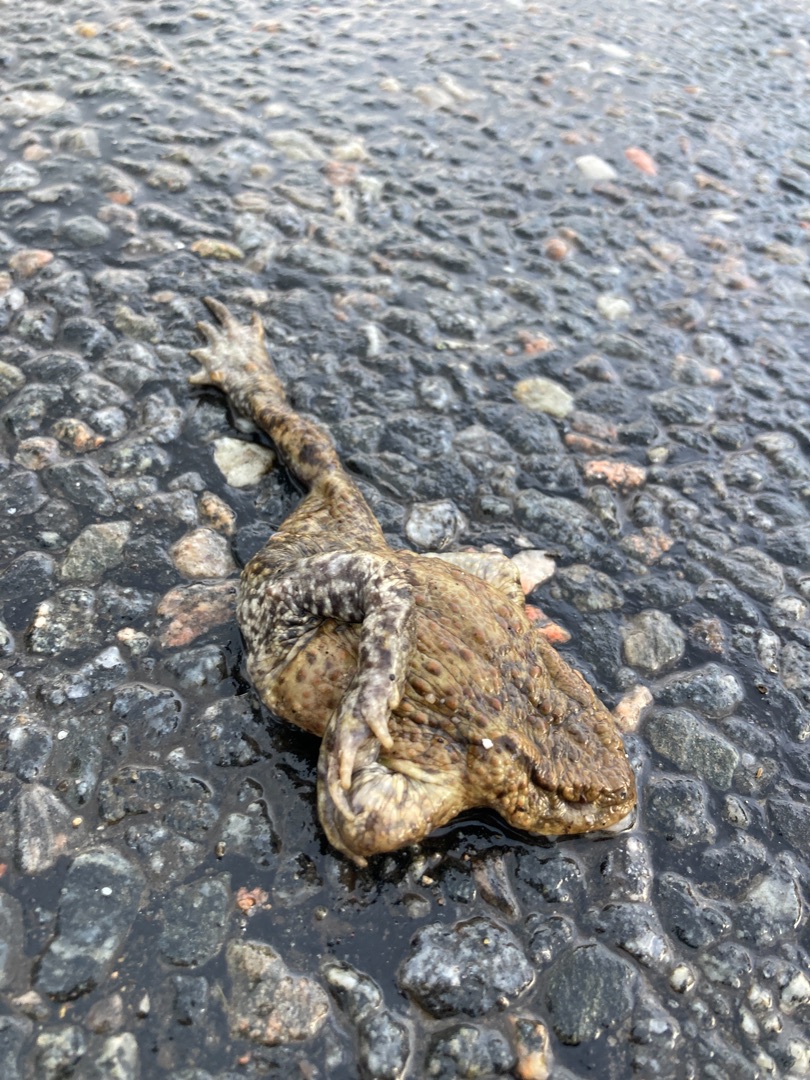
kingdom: Animalia
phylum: Chordata
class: Amphibia
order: Anura
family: Bufonidae
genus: Bufo
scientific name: Bufo bufo
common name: Skrubtudse
